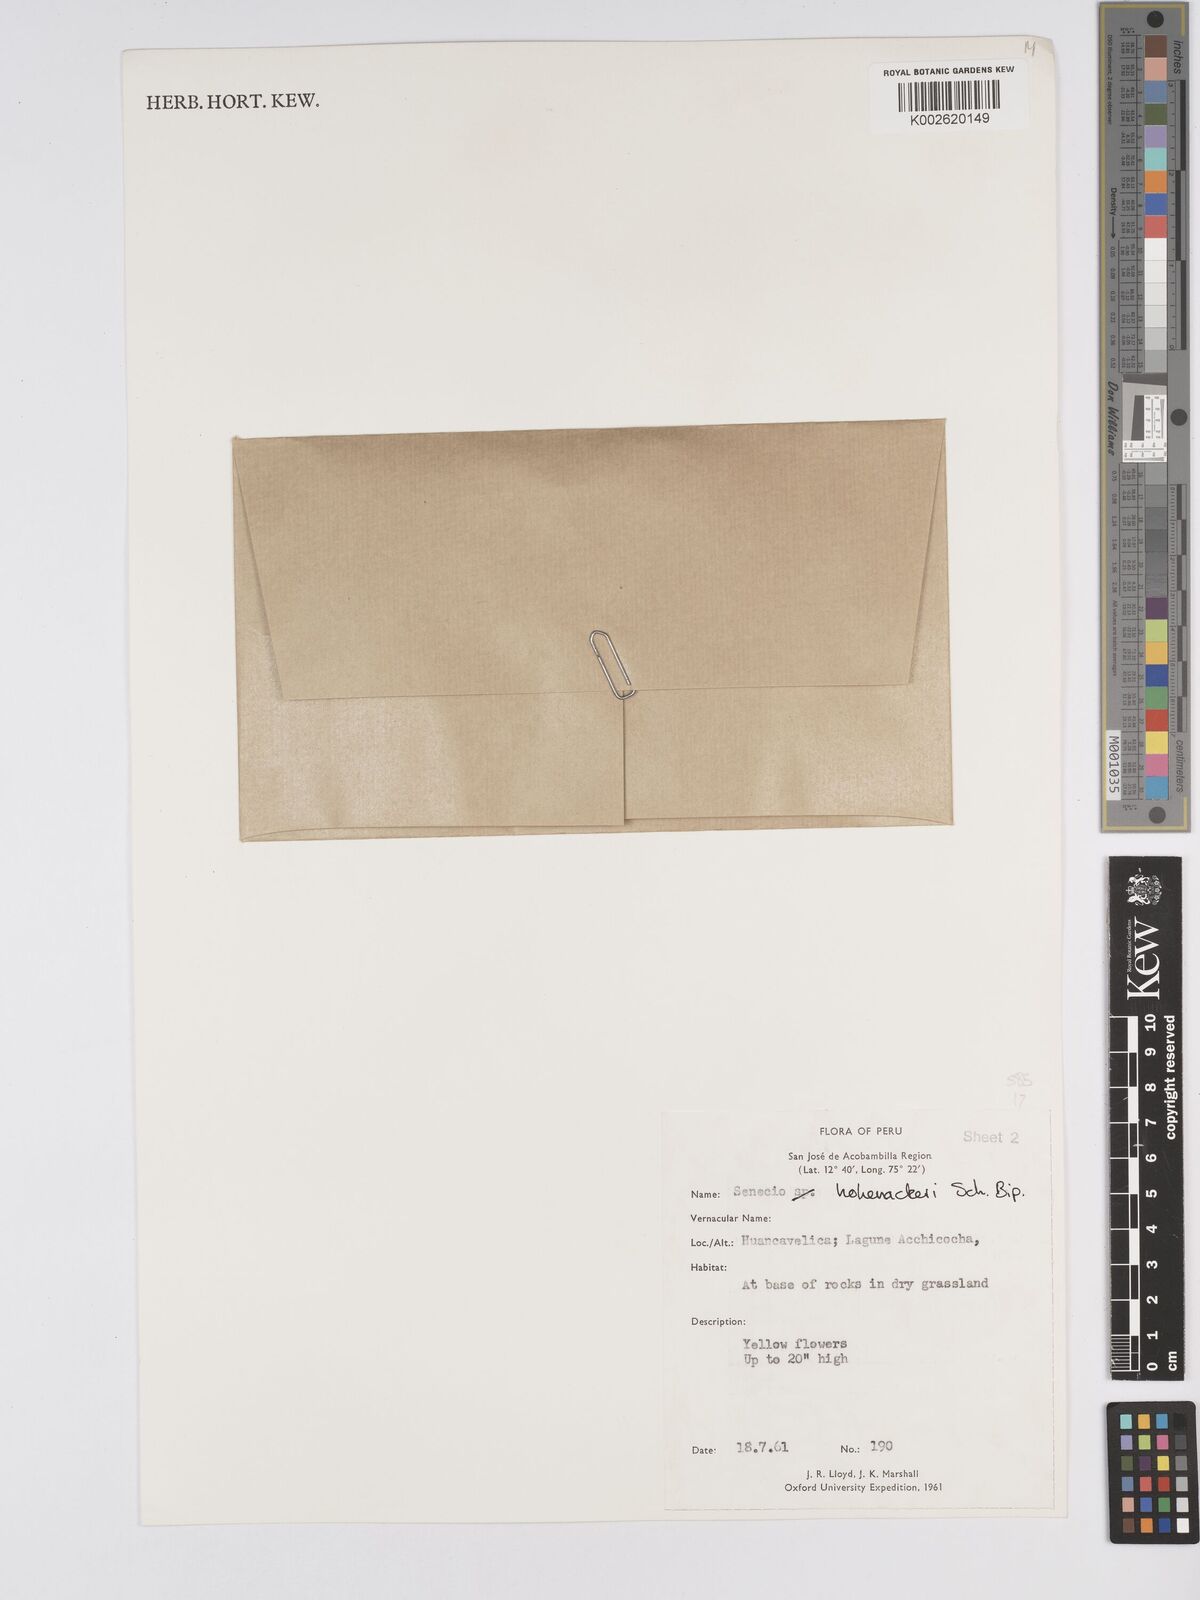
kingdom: Plantae
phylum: Tracheophyta
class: Magnoliopsida
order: Asterales
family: Asteraceae
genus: Senecio
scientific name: Senecio hohenackeri
